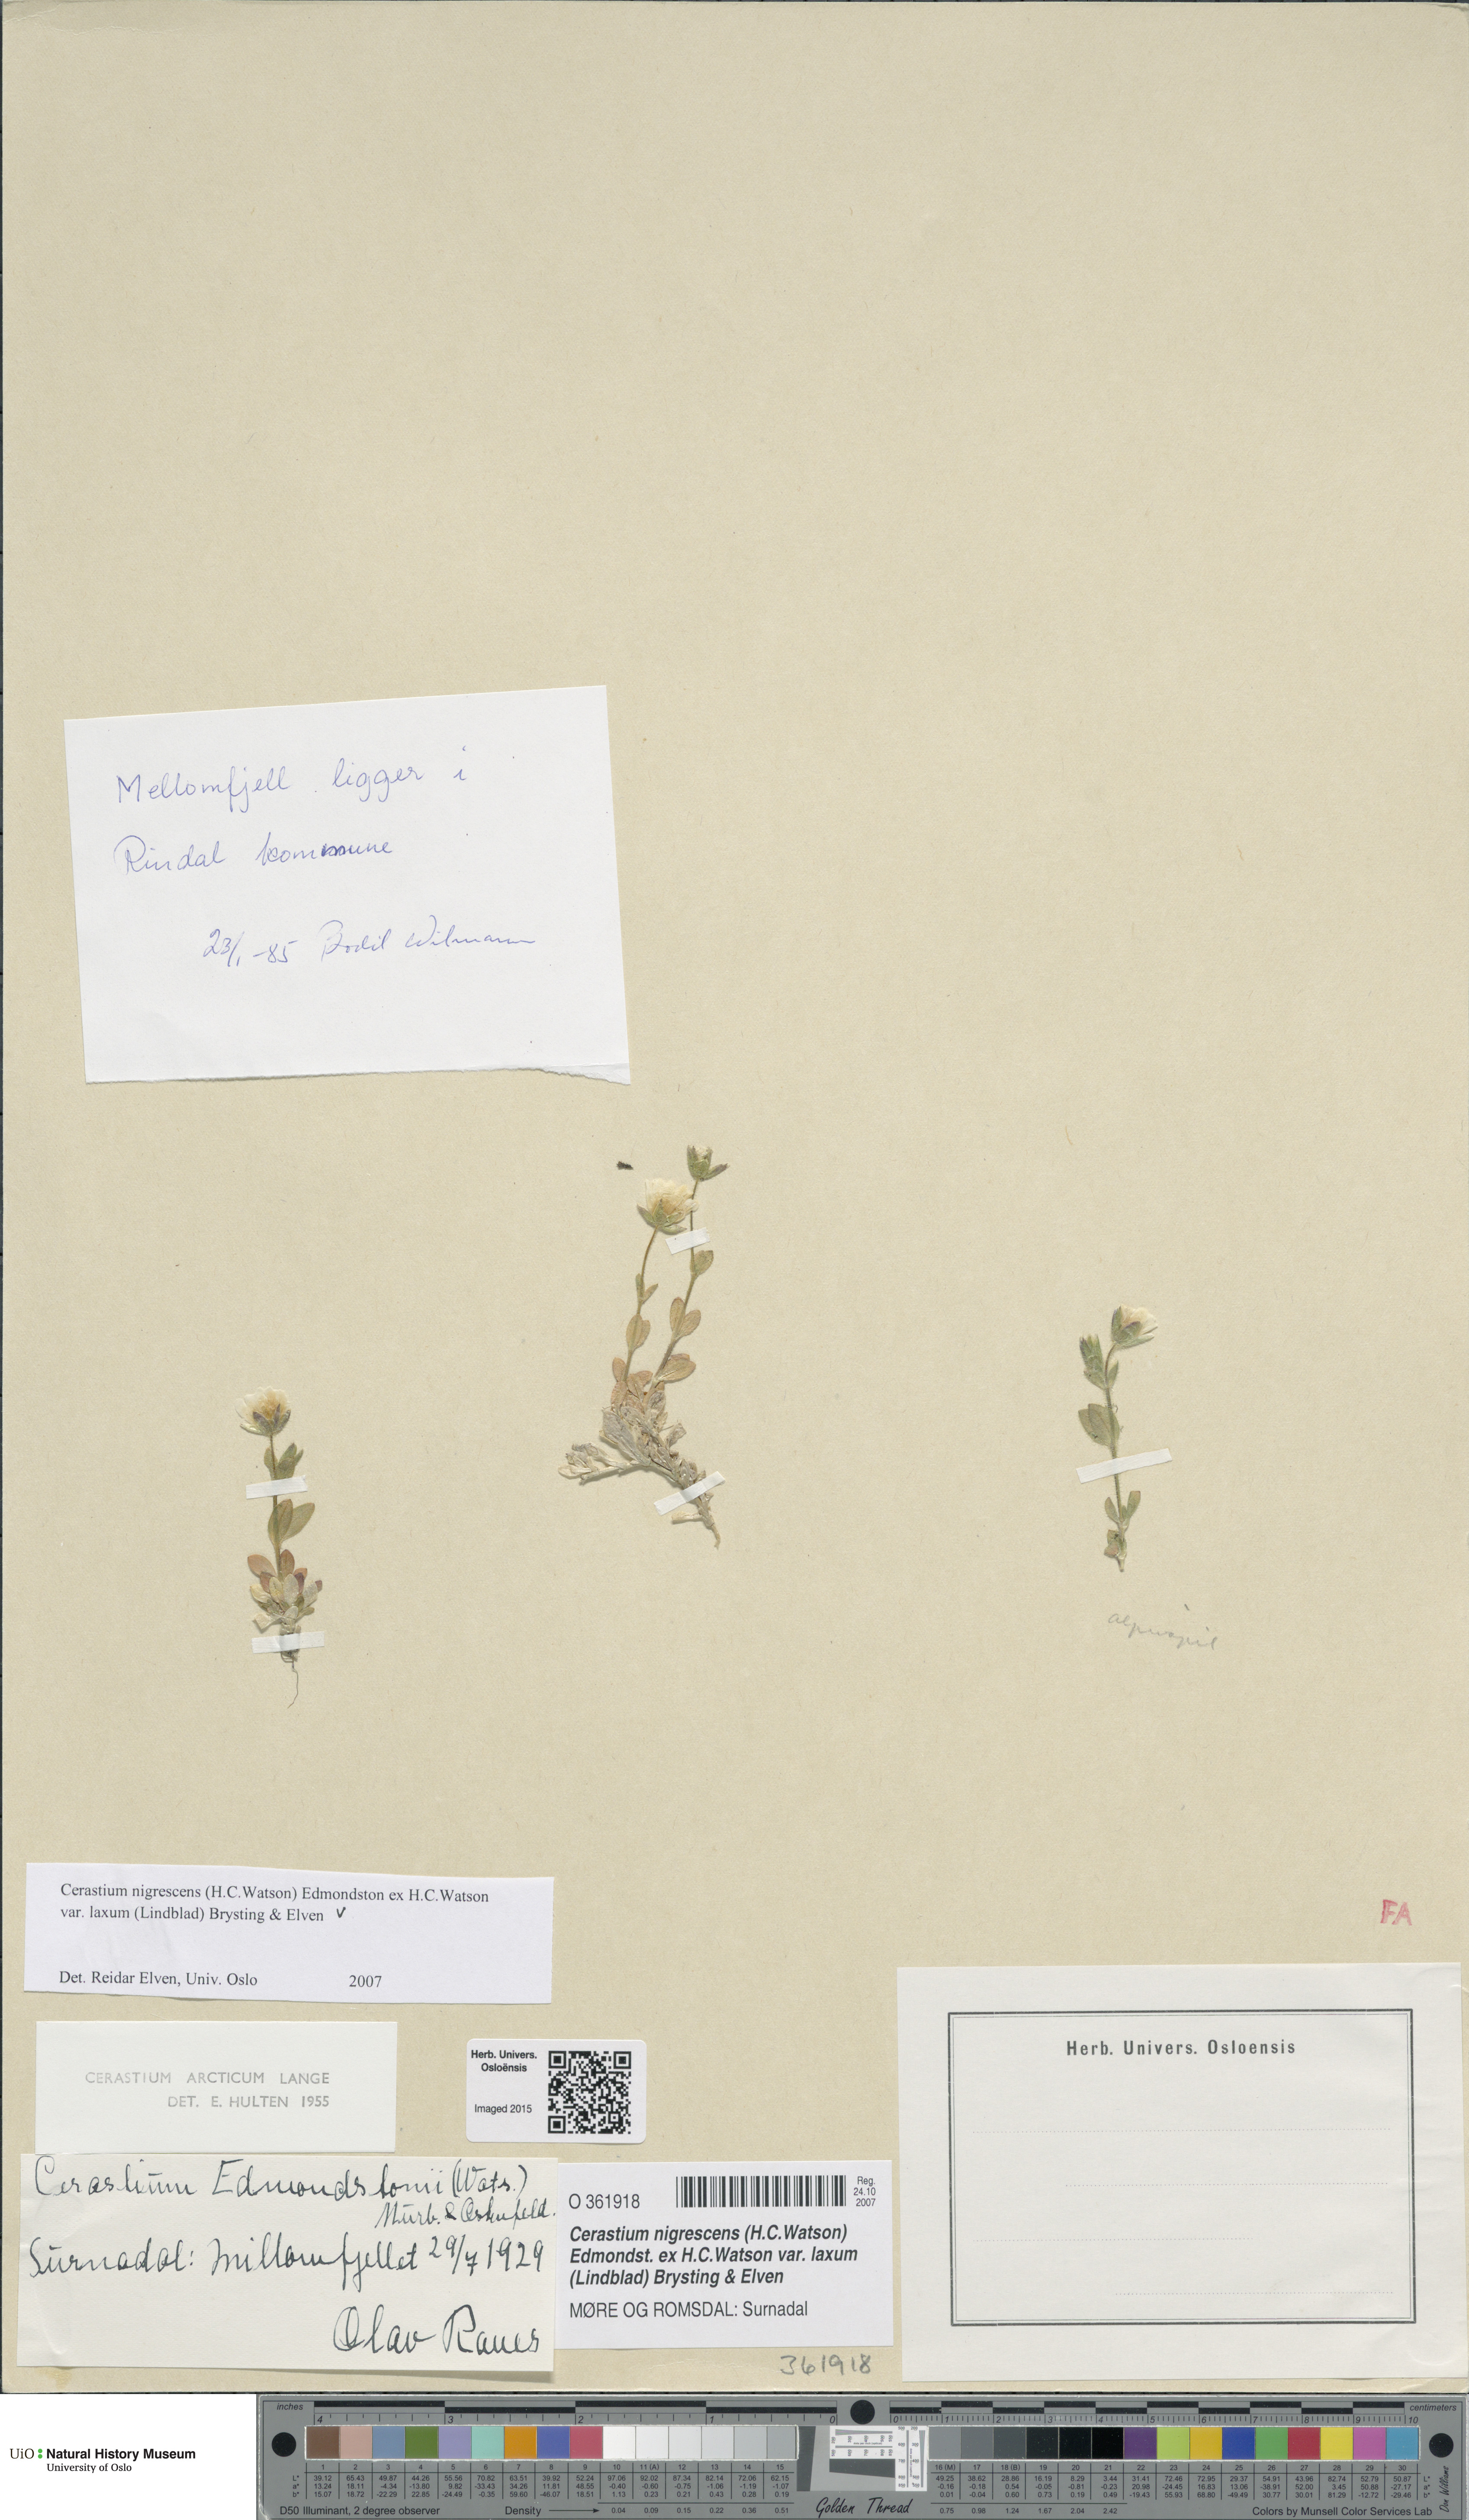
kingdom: Plantae
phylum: Tracheophyta
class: Magnoliopsida
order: Caryophyllales
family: Caryophyllaceae
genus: Cerastium
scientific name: Cerastium nigrescens
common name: Shetland mouse-ear
